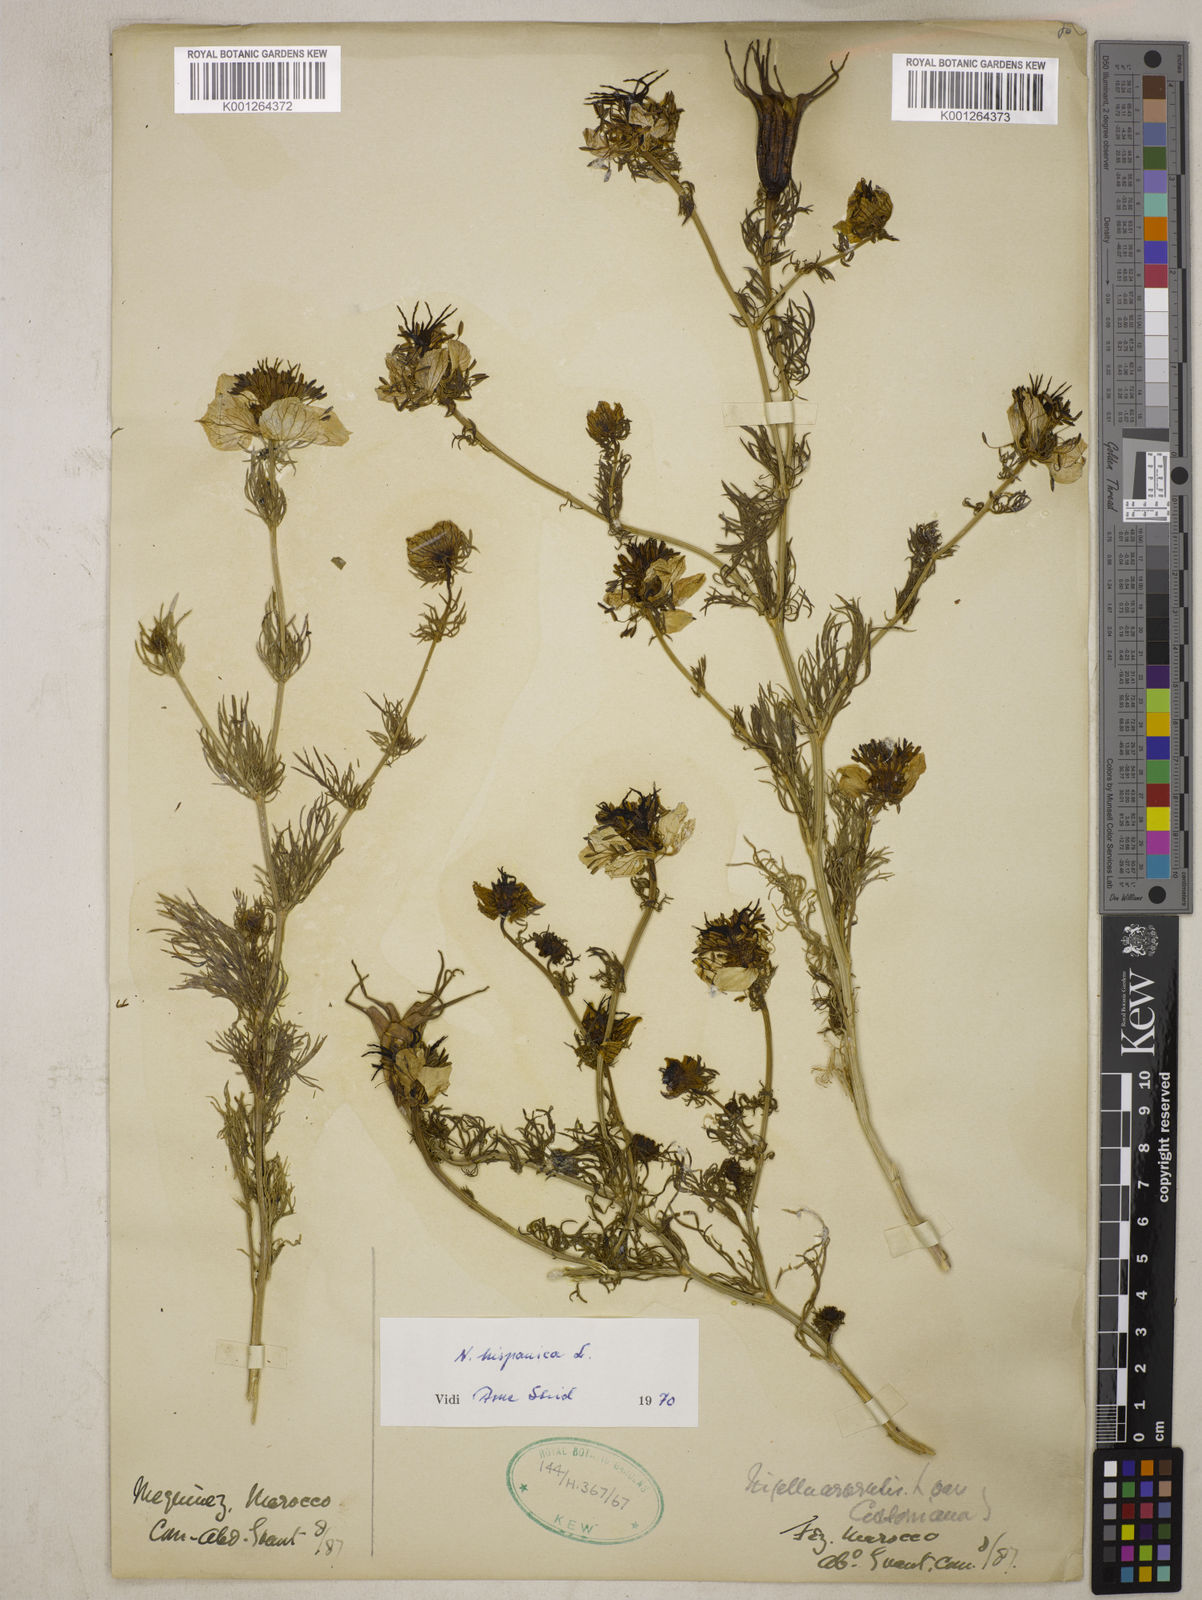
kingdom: Plantae
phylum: Tracheophyta
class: Magnoliopsida
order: Ranunculales
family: Ranunculaceae
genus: Nigella
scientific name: Nigella hispanica
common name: Fennel-flower
